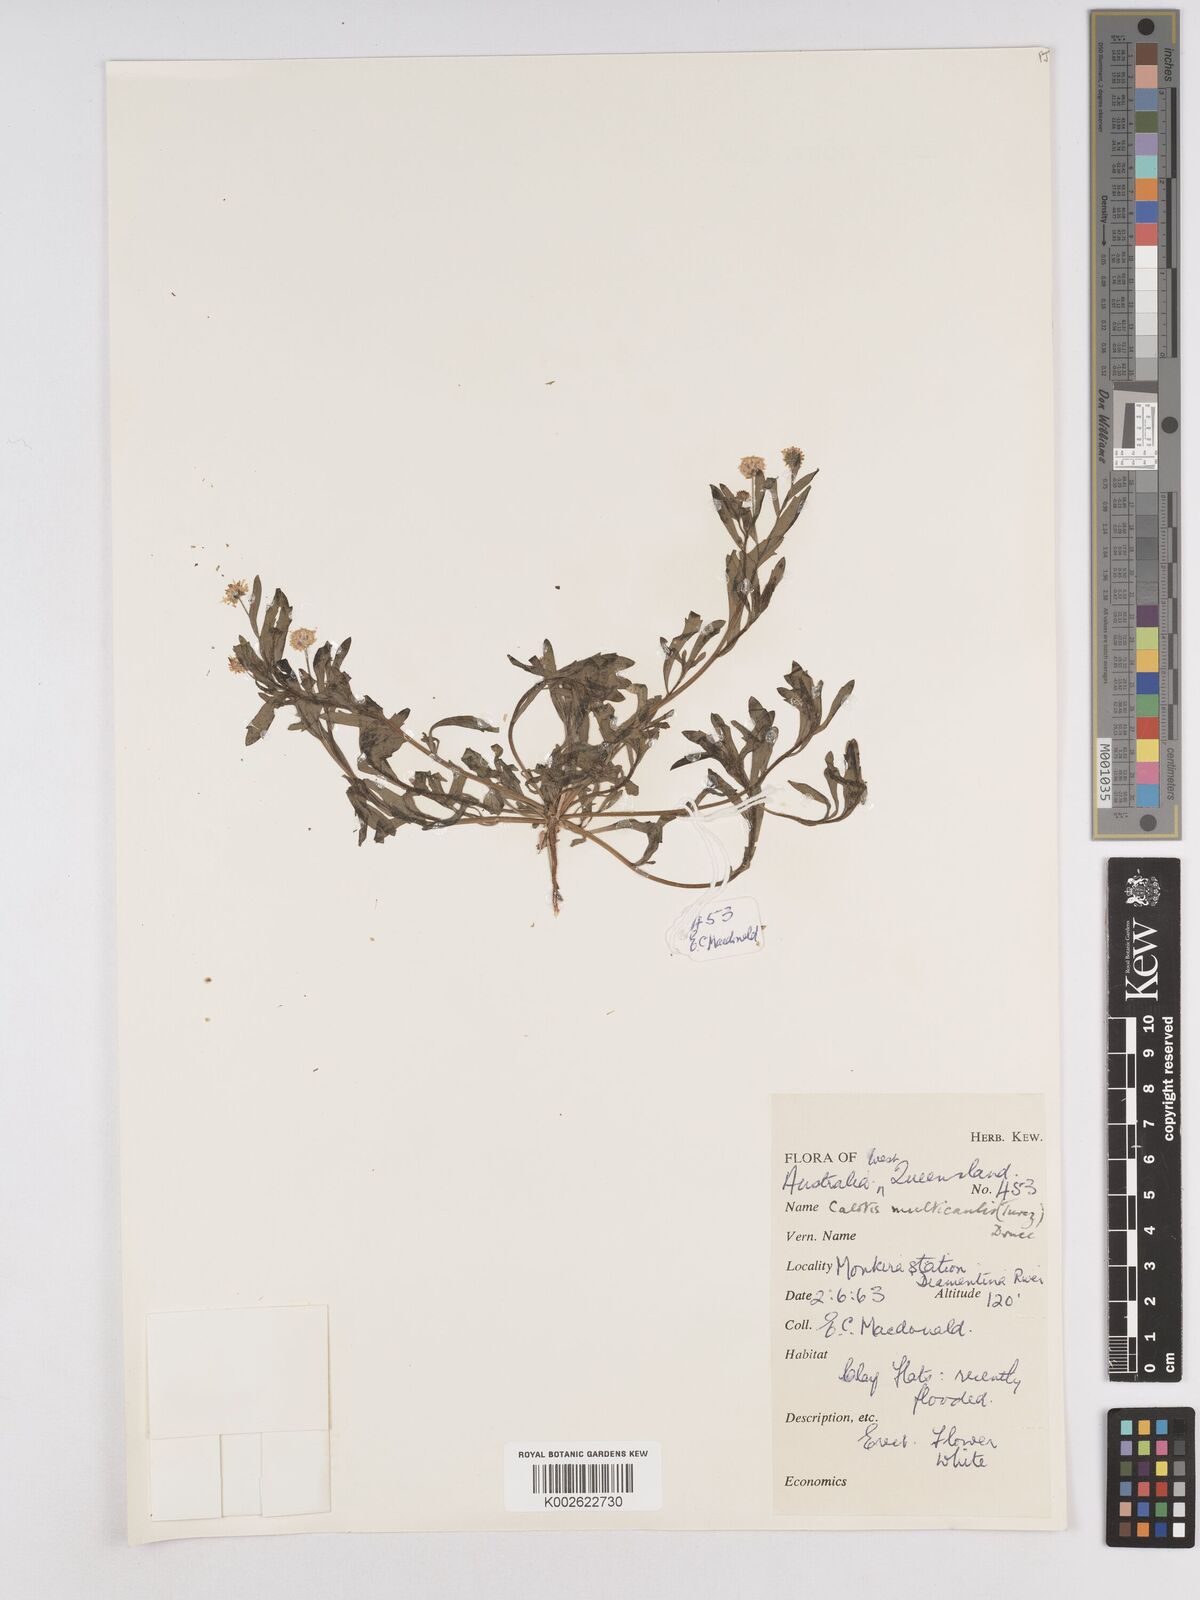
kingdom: Plantae
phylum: Tracheophyta
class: Magnoliopsida
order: Asterales
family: Asteraceae
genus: Calotis
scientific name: Calotis multicaulis
